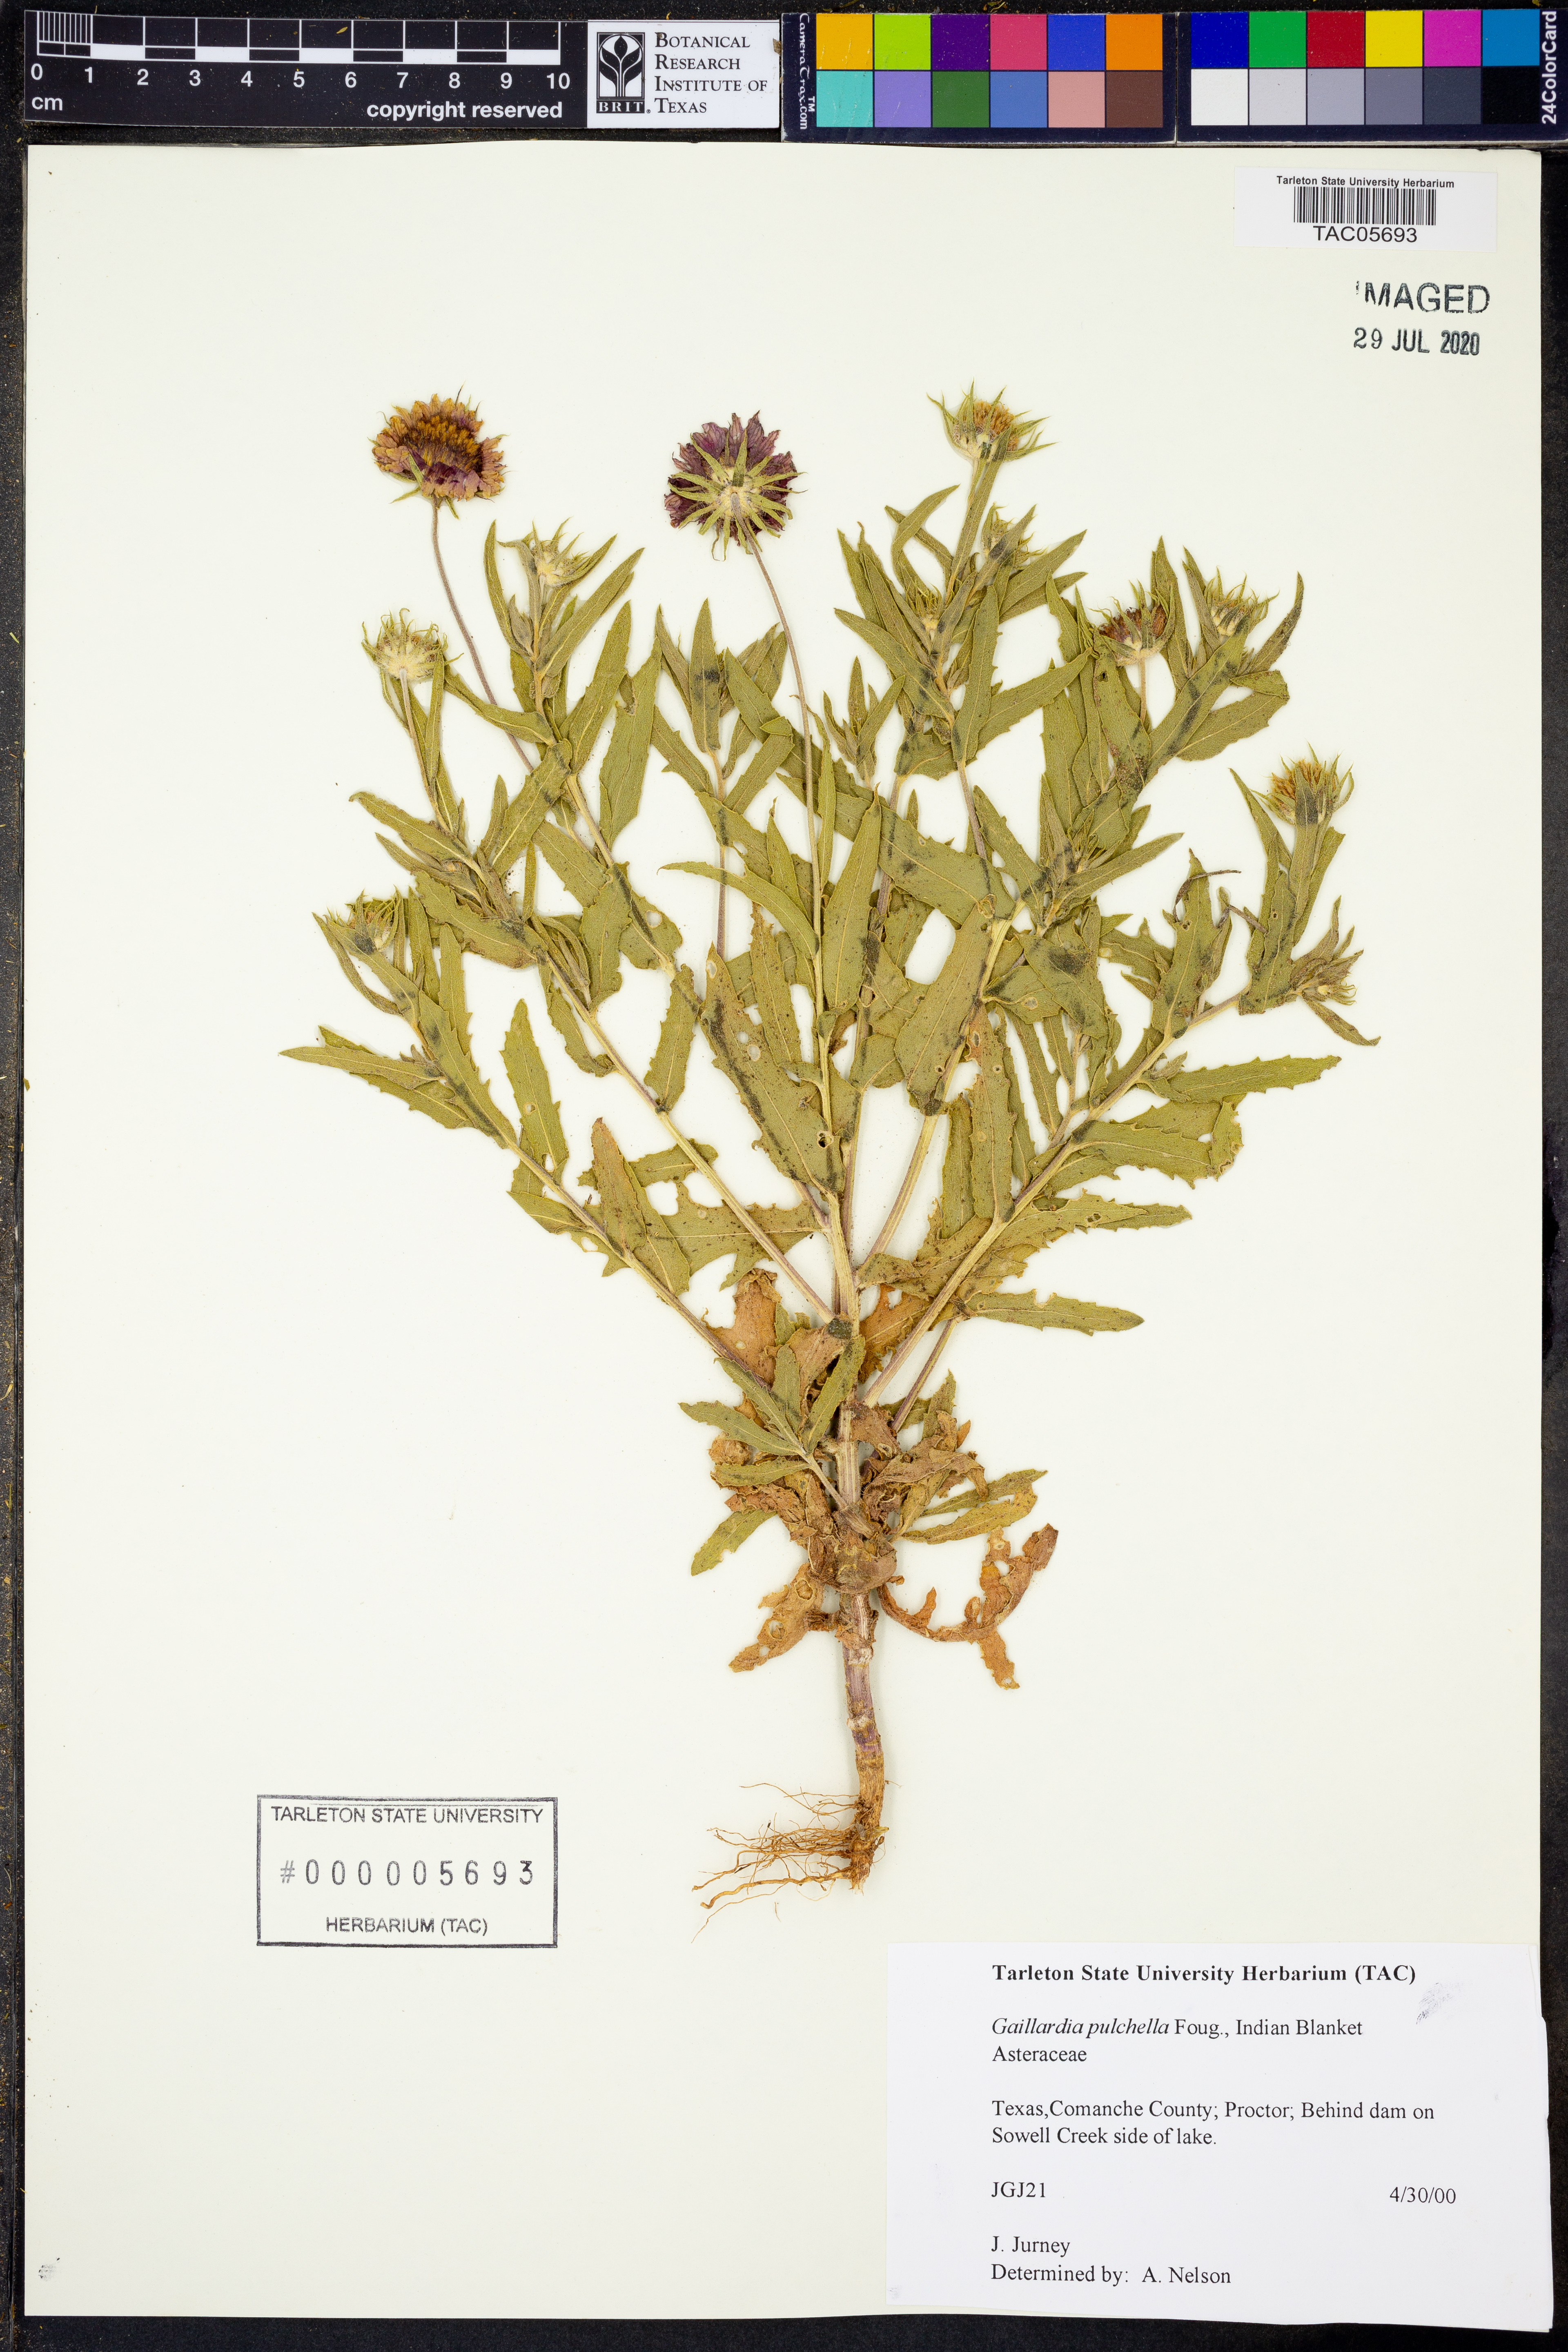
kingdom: Plantae
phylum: Tracheophyta
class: Magnoliopsida
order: Asterales
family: Asteraceae
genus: Gaillardia
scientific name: Gaillardia pulchella
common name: Firewheel
